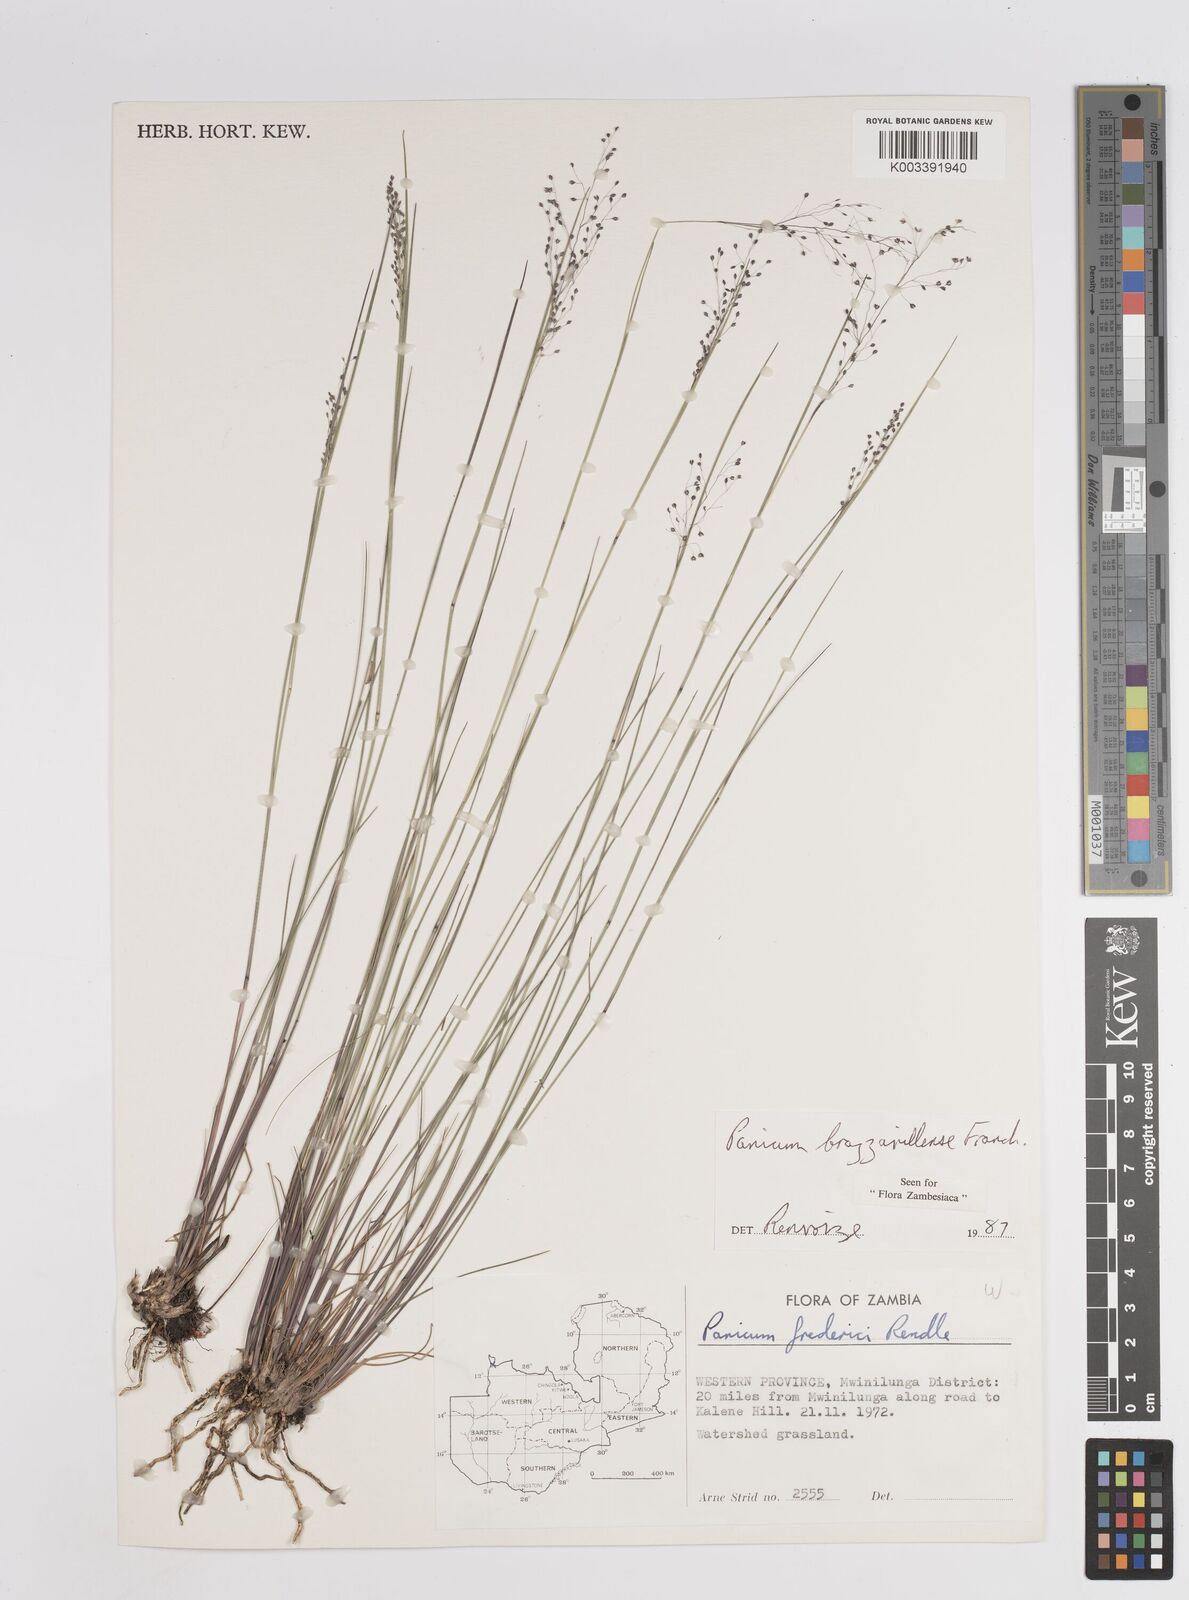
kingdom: Plantae
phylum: Tracheophyta
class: Liliopsida
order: Poales
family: Poaceae
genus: Trichanthecium
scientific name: Trichanthecium brazzavillense
